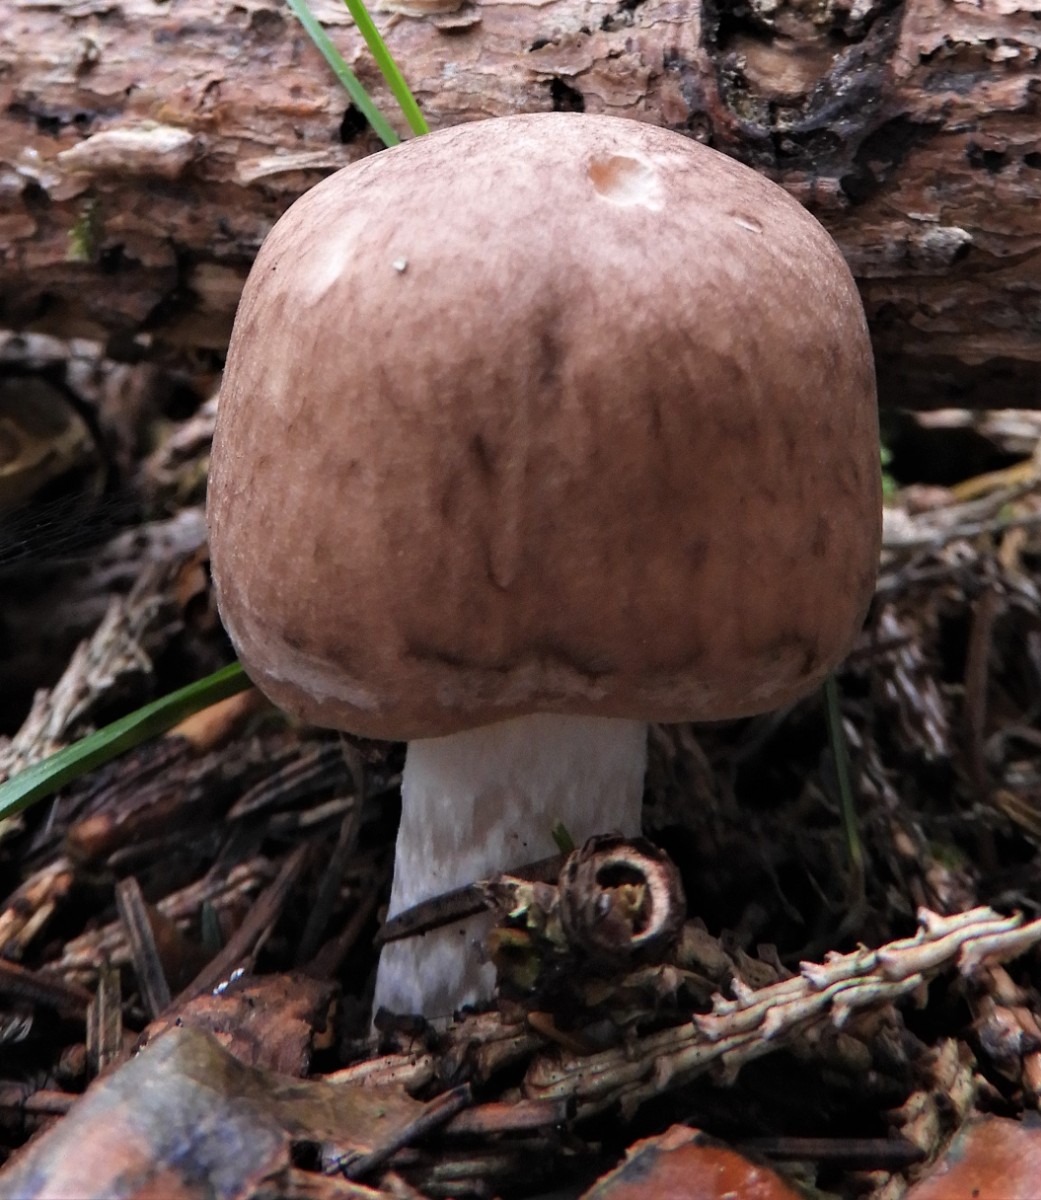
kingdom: Fungi
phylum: Basidiomycota
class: Agaricomycetes
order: Agaricales
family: Agaricaceae
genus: Agaricus
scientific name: Agaricus impudicus
